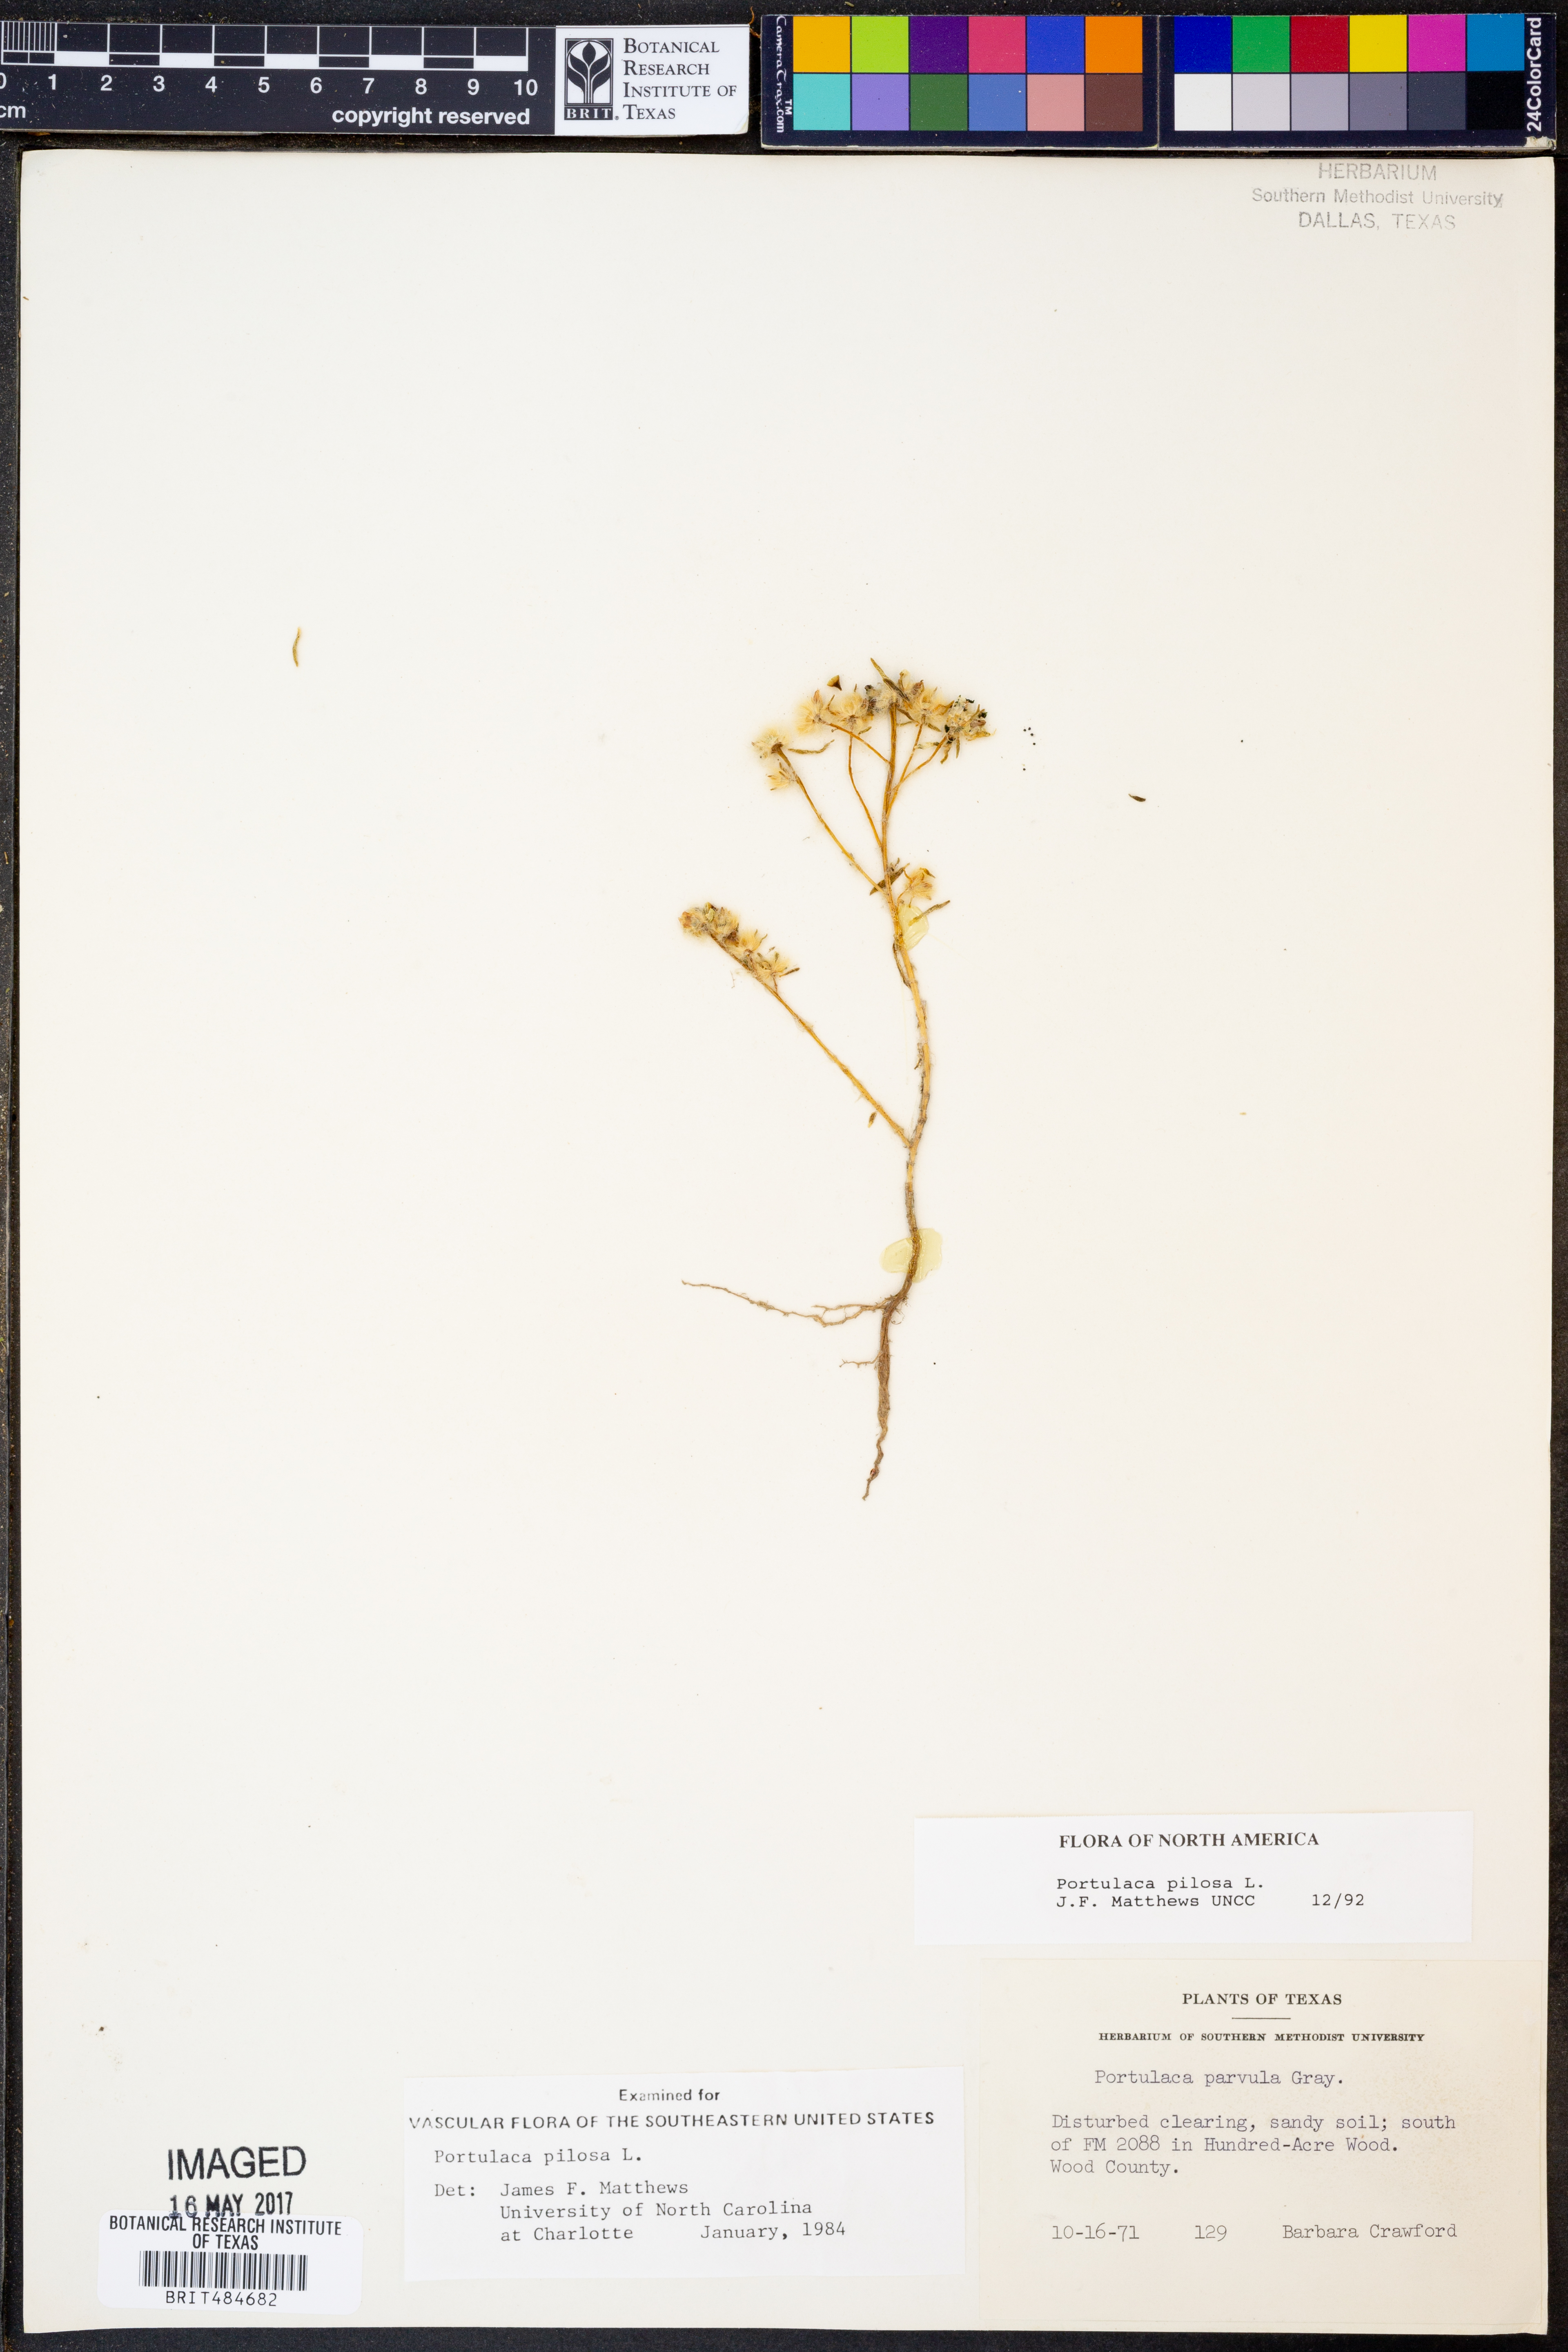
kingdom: Plantae
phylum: Tracheophyta
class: Magnoliopsida
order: Caryophyllales
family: Portulacaceae
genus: Portulaca
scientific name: Portulaca pilosa
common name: Kiss me quick
